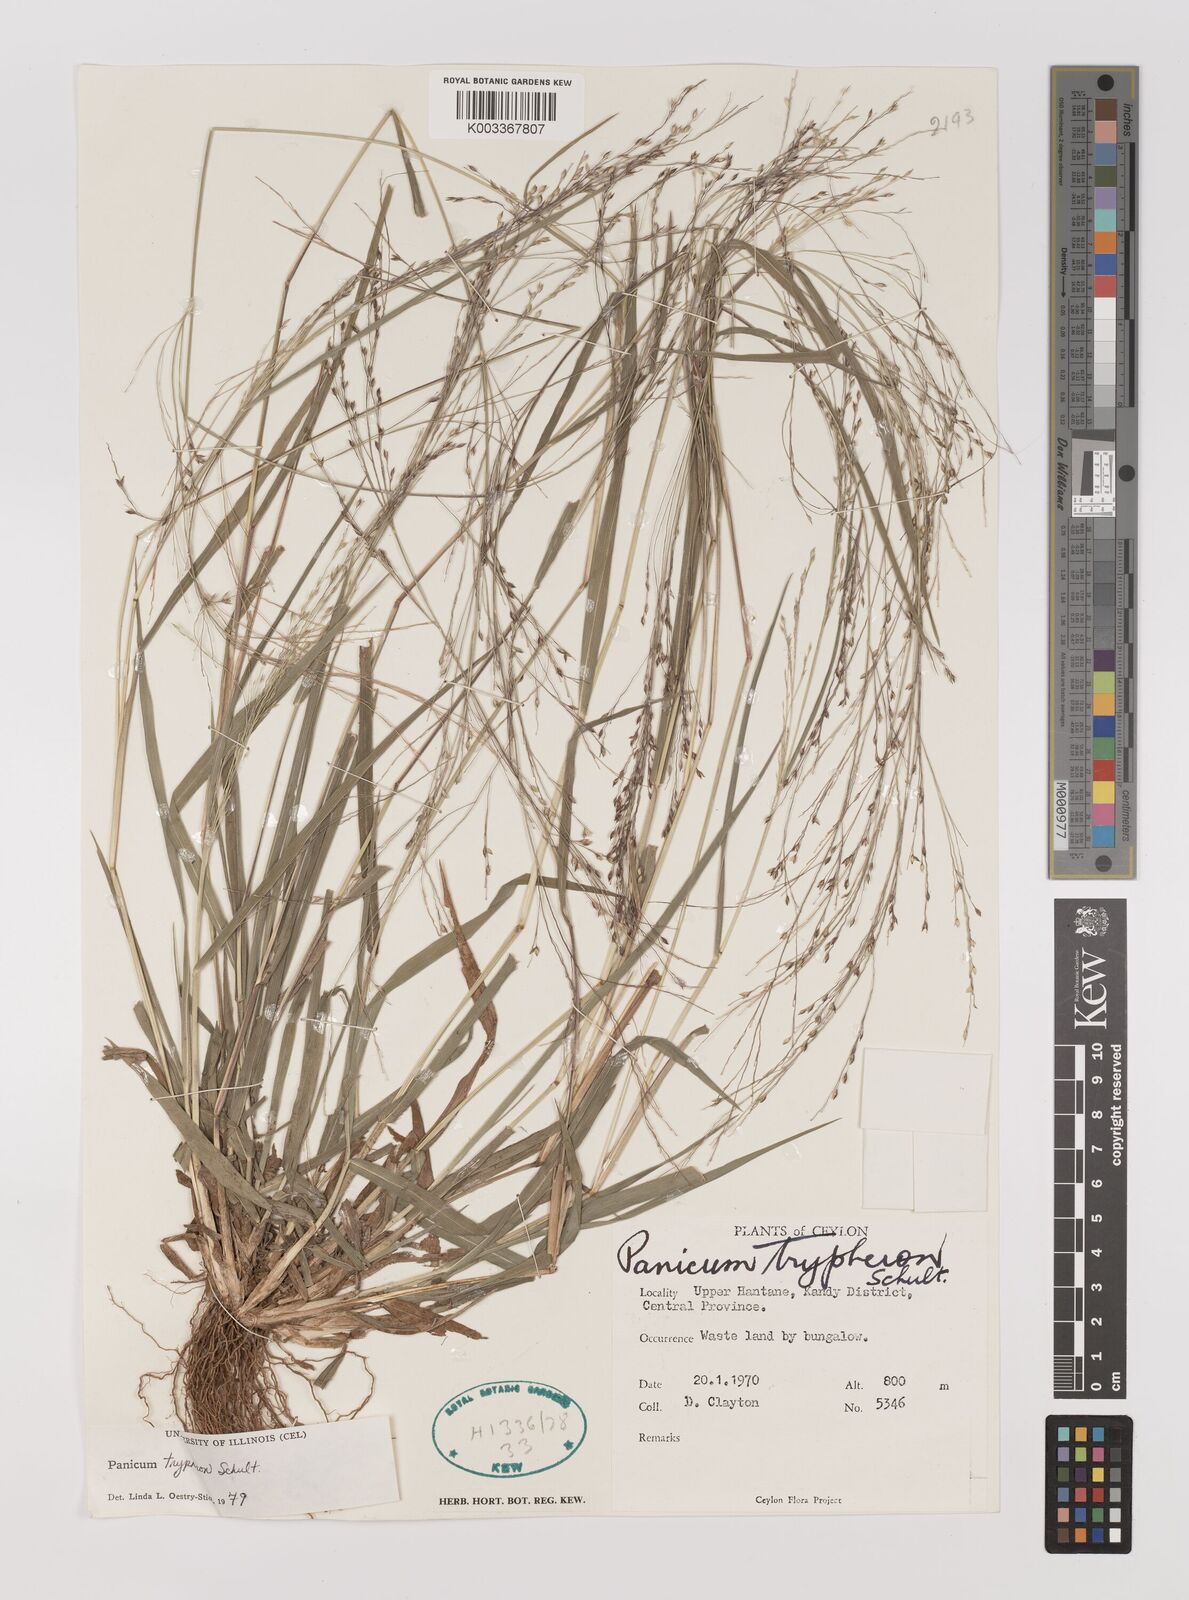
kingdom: Plantae
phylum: Tracheophyta
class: Liliopsida
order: Poales
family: Poaceae
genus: Panicum
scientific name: Panicum curviflorum
